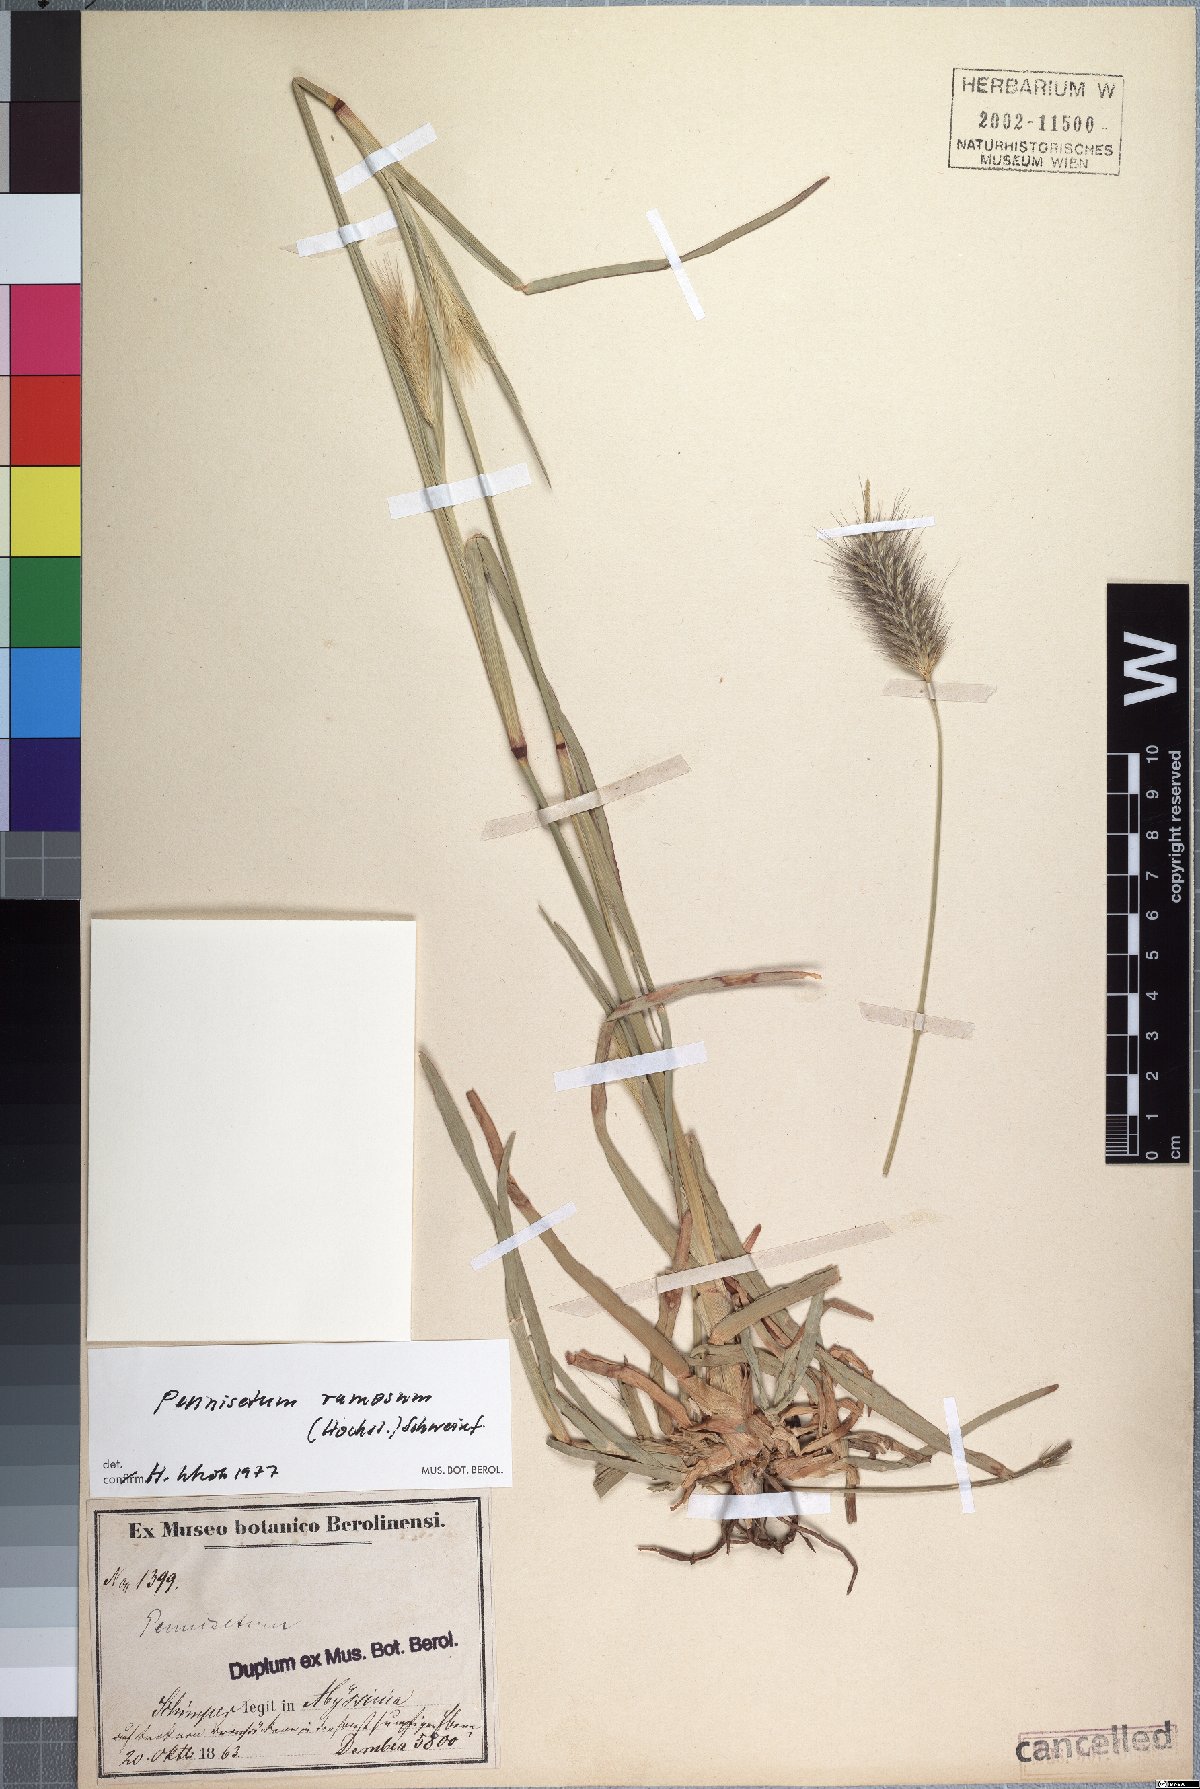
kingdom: Plantae
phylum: Tracheophyta
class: Liliopsida
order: Poales
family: Poaceae
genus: Cenchrus
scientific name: Cenchrus ramosus
